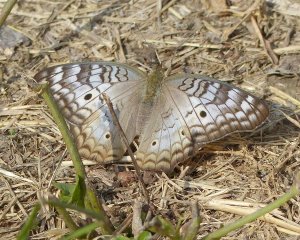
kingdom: Animalia
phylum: Arthropoda
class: Insecta
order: Lepidoptera
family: Nymphalidae
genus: Anartia
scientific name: Anartia jatrophae
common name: White Peacock
